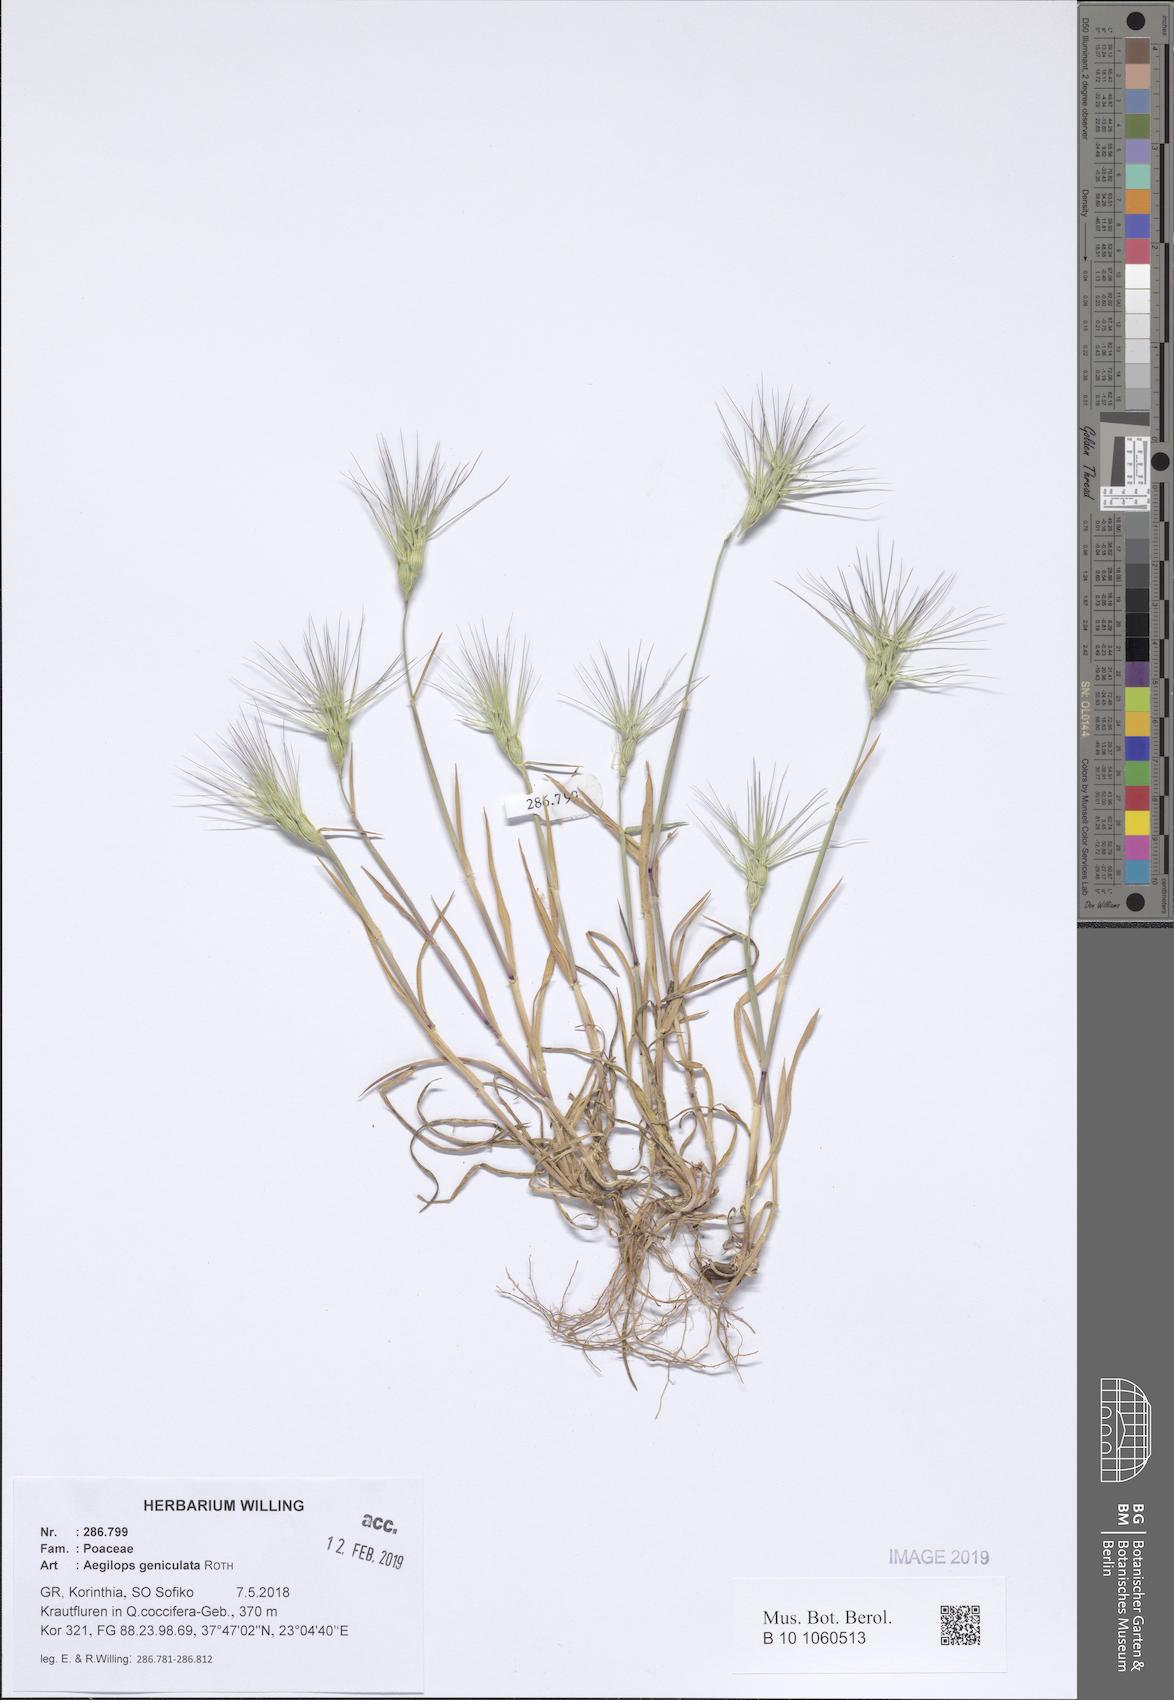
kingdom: Plantae
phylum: Tracheophyta
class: Liliopsida
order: Poales
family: Poaceae
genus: Aegilops
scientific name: Aegilops geniculata
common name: Ovate goat grass
